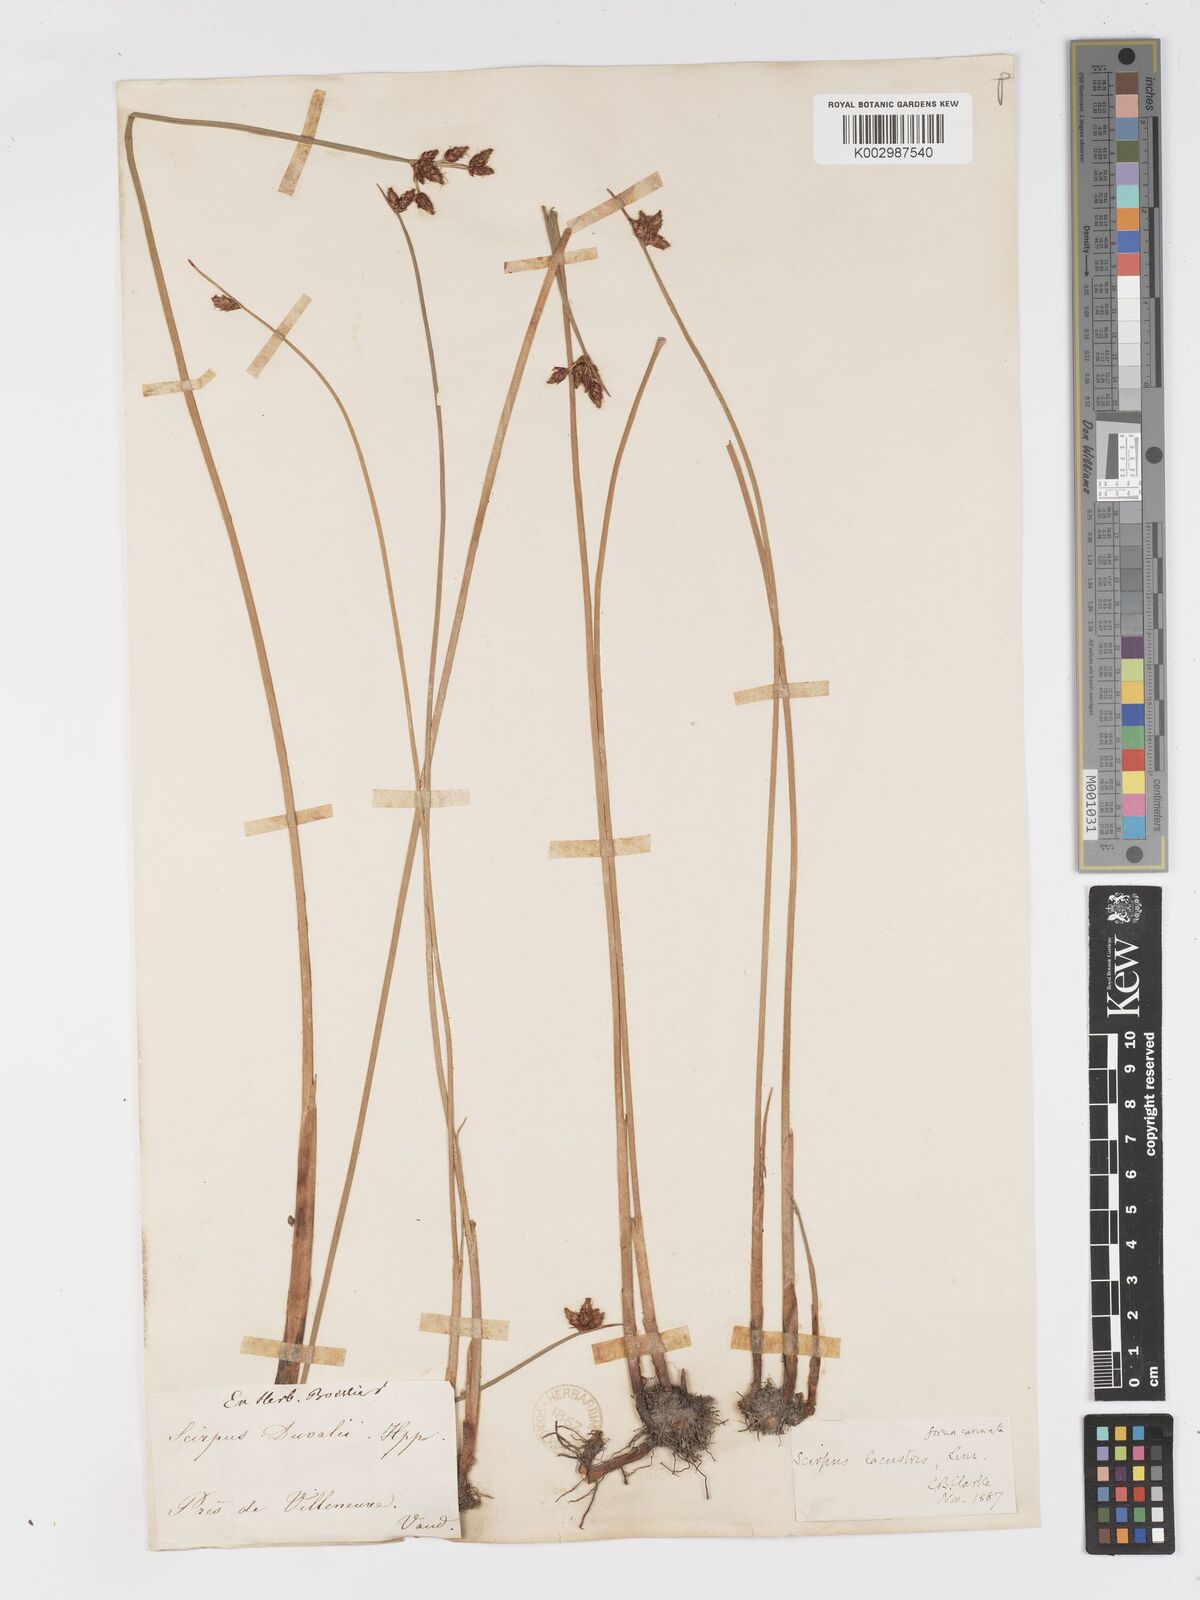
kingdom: Plantae
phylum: Tracheophyta
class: Liliopsida
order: Poales
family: Cyperaceae
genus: Schoenoplectus
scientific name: Schoenoplectus lacustris
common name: Common club-rush
